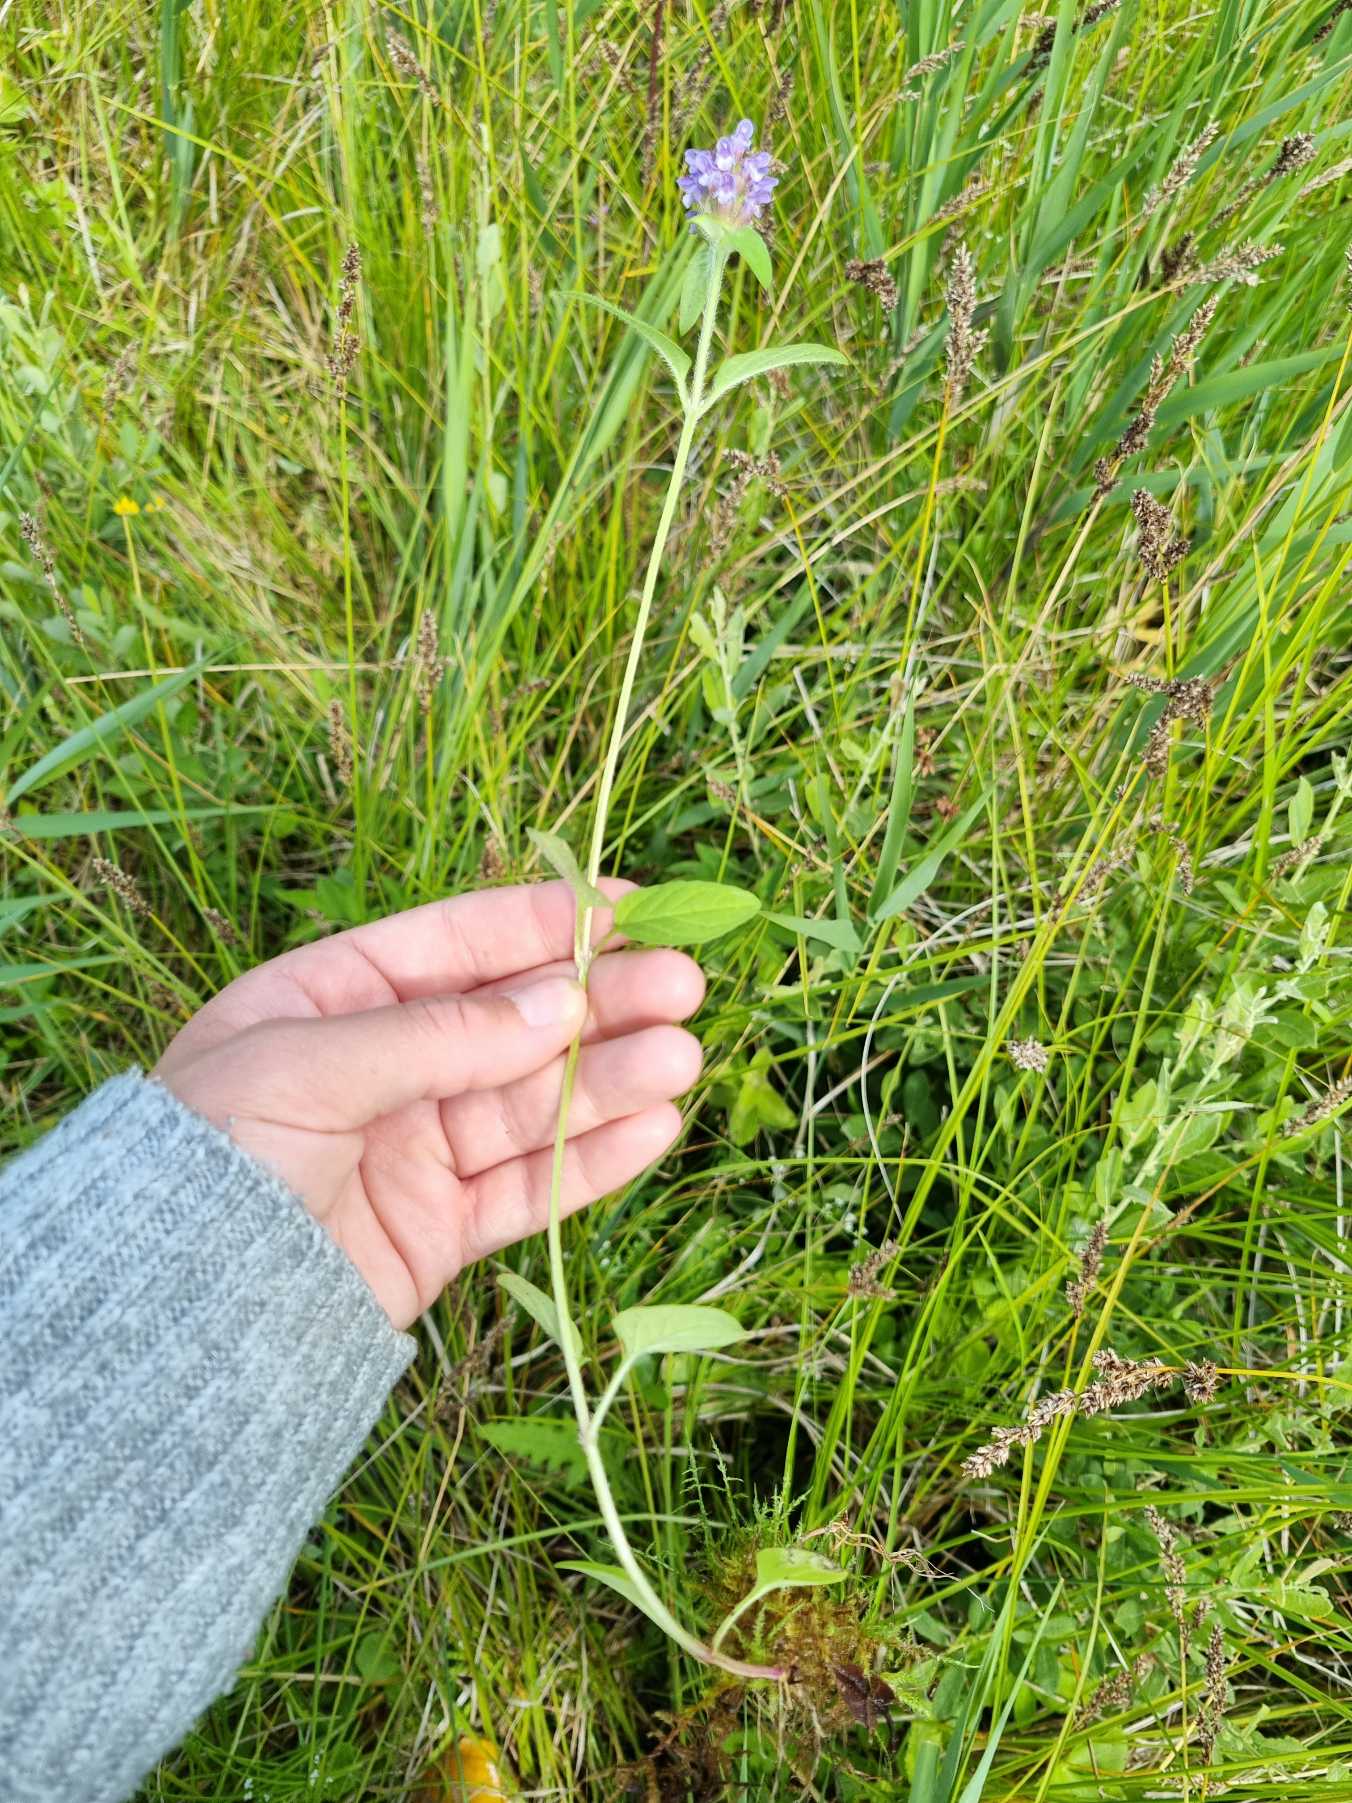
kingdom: Plantae
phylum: Tracheophyta
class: Magnoliopsida
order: Lamiales
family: Lamiaceae
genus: Prunella
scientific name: Prunella vulgaris
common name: Almindelig brunelle
